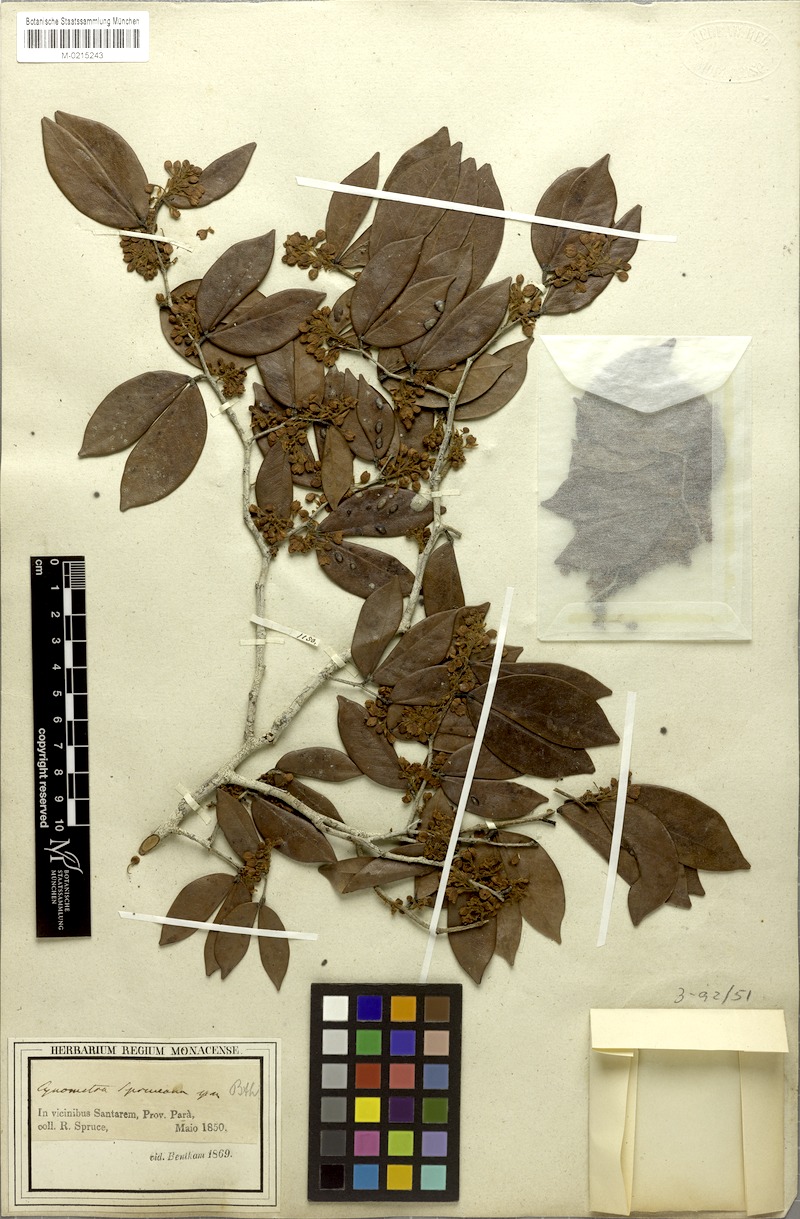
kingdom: Plantae
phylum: Tracheophyta
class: Magnoliopsida
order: Fabales
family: Fabaceae
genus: Hymenaea
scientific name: Hymenaea martiana
